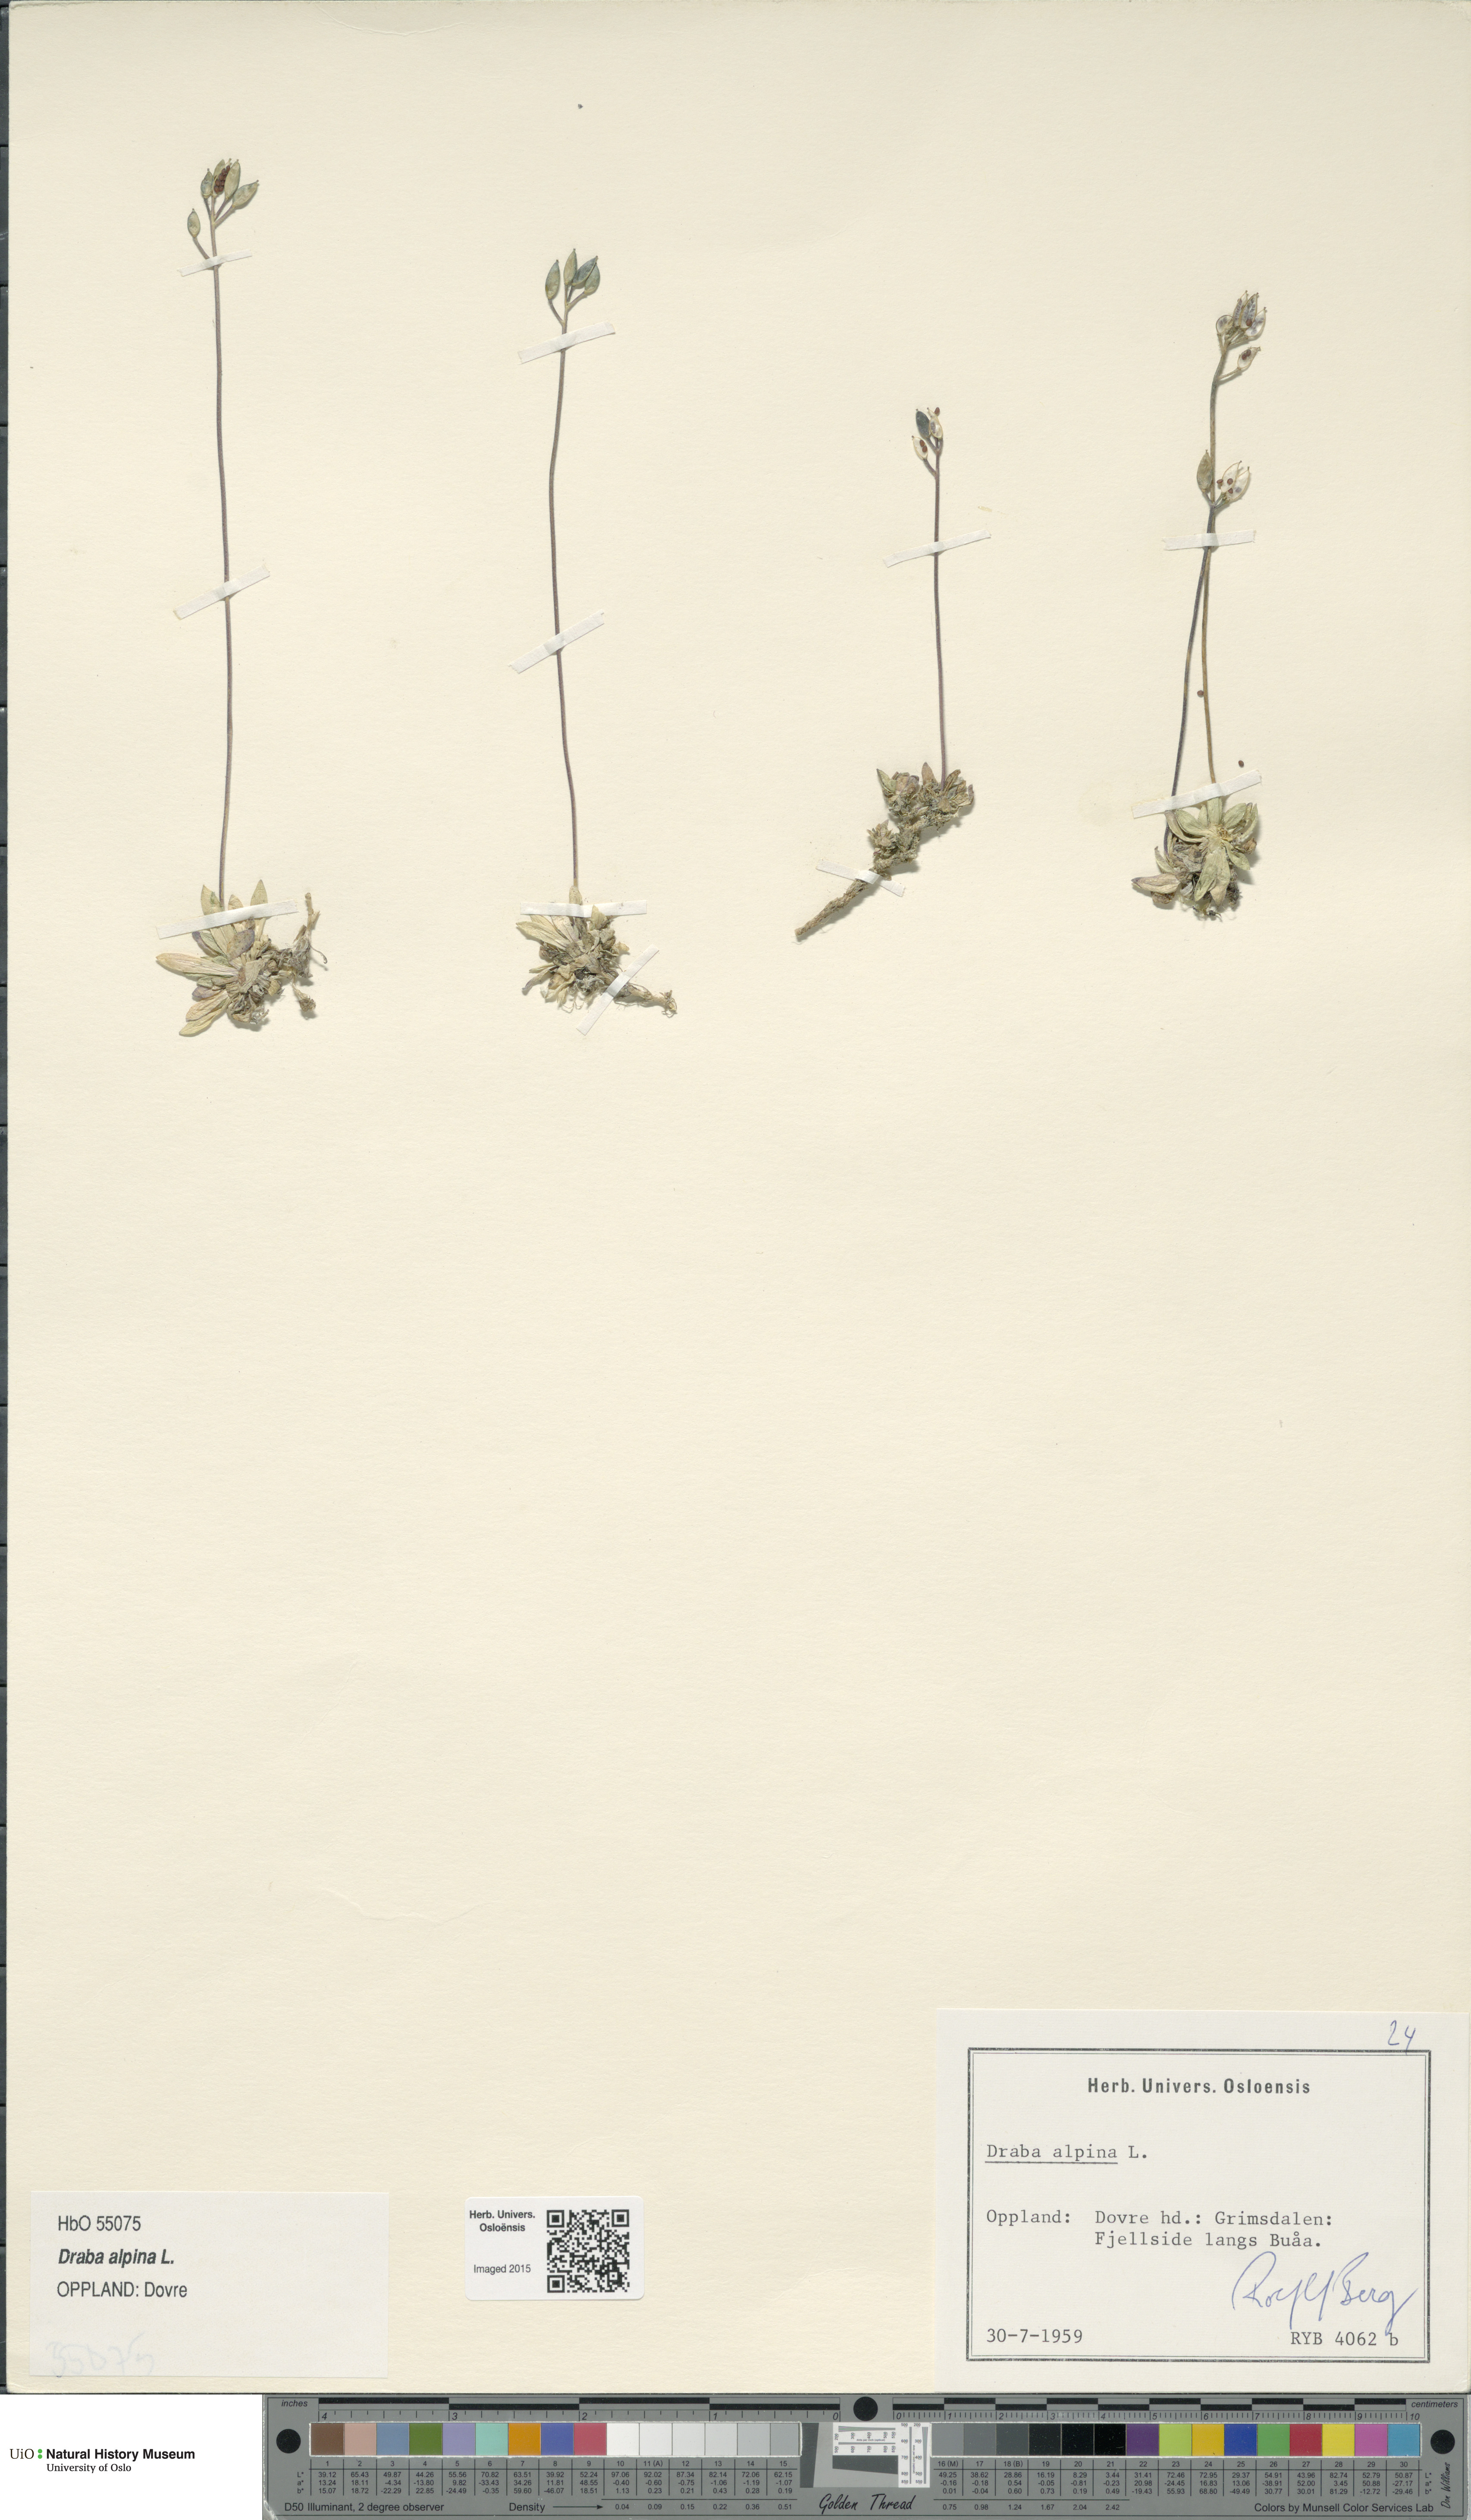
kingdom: Plantae
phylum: Tracheophyta
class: Magnoliopsida
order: Brassicales
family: Brassicaceae
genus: Draba
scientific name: Draba alpina
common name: Alpine draba
